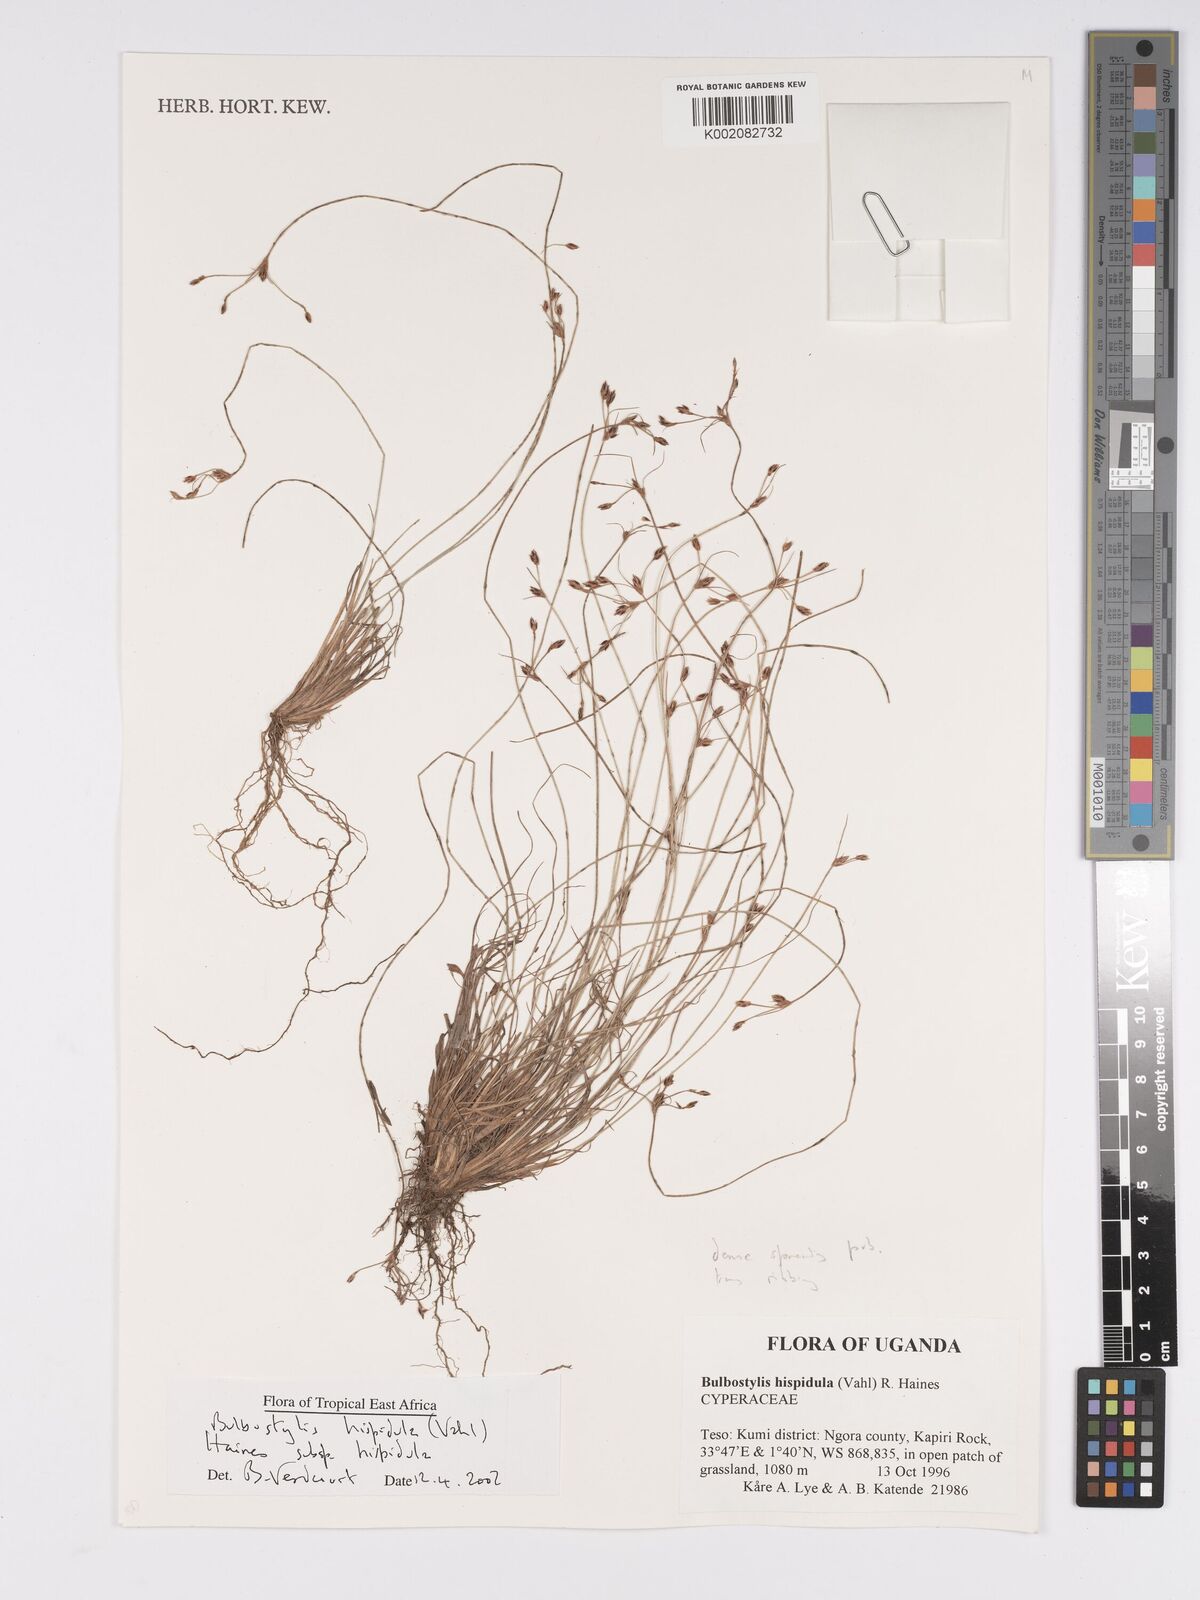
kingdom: Plantae
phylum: Tracheophyta
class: Magnoliopsida
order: Asterales
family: Asteraceae
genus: Bulbostylis
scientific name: Bulbostylis
